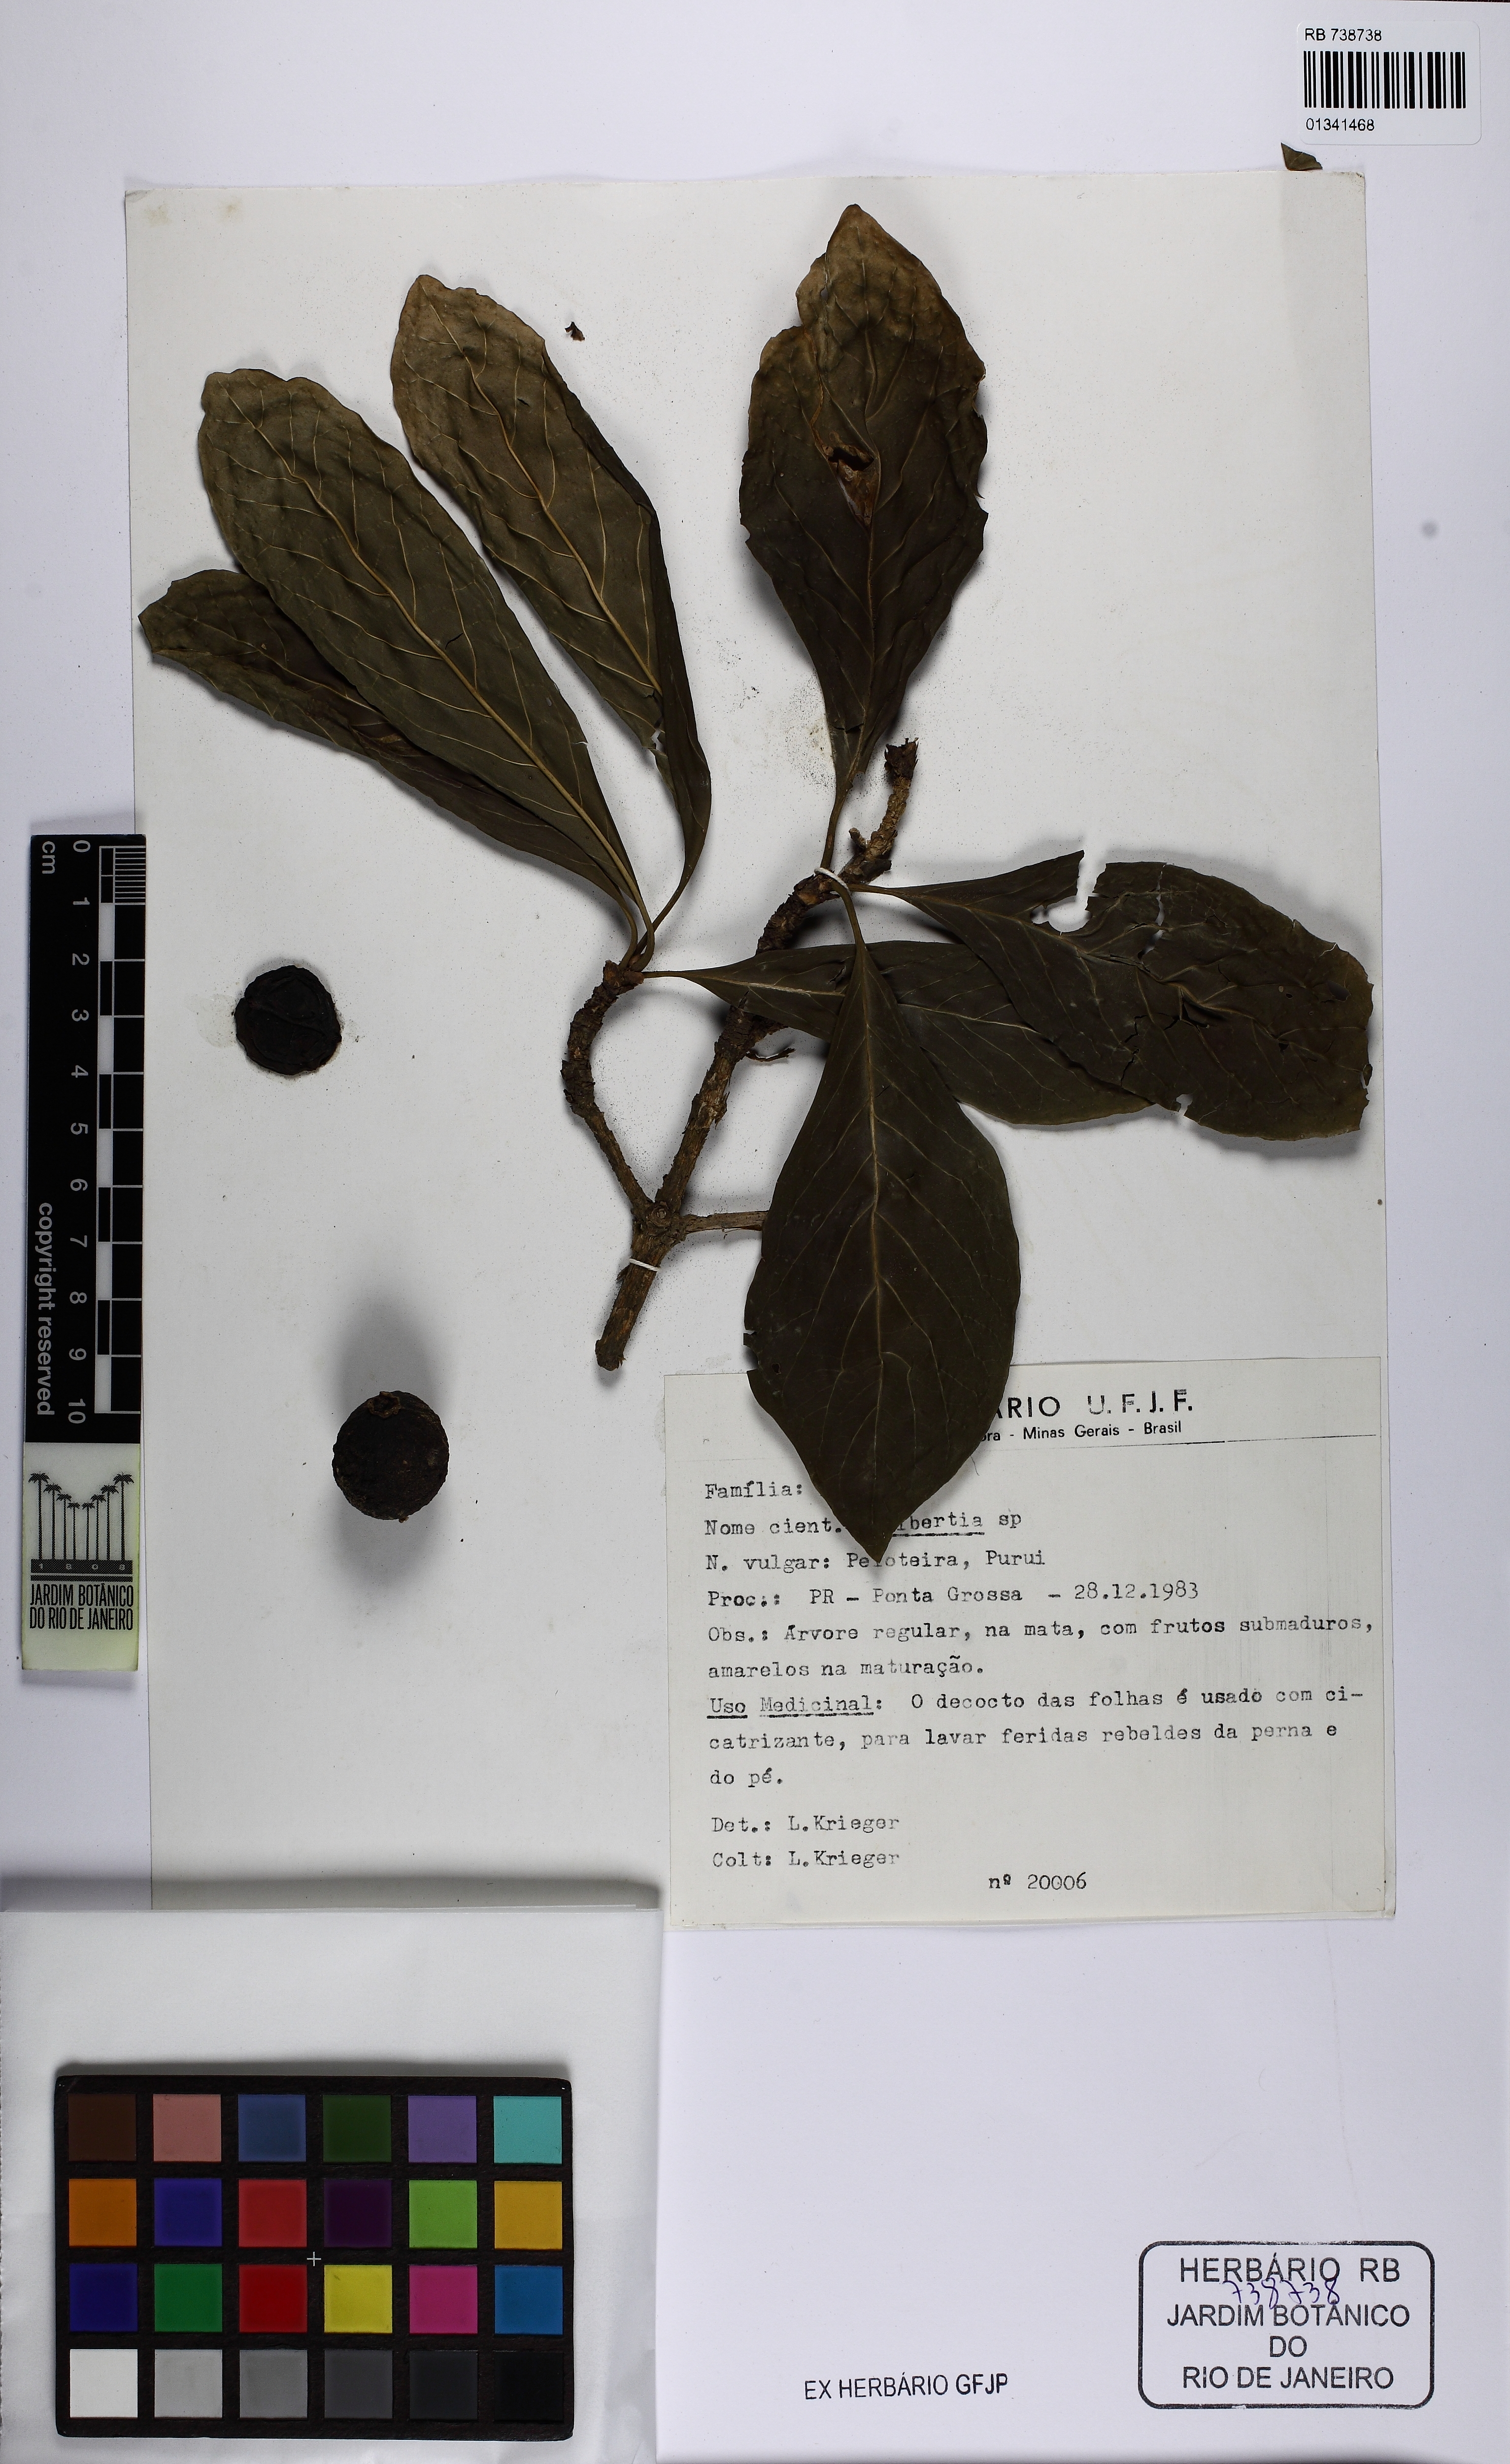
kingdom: Plantae
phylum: Tracheophyta
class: Magnoliopsida
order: Gentianales
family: Rubiaceae
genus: Randia
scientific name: Randia
